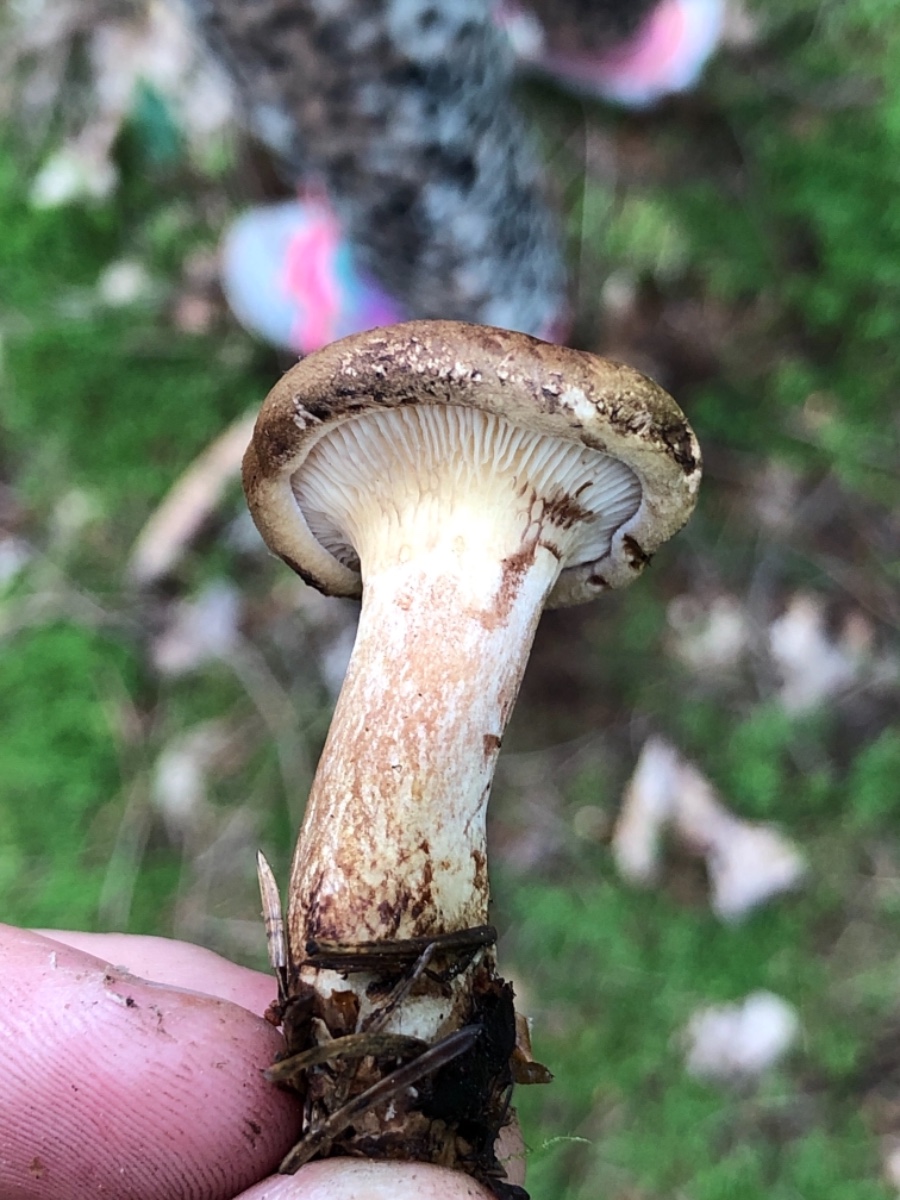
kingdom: Fungi
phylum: Basidiomycota
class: Agaricomycetes
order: Boletales
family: Paxillaceae
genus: Paxillus
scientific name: Paxillus involutus
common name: almindelig netbladhat
